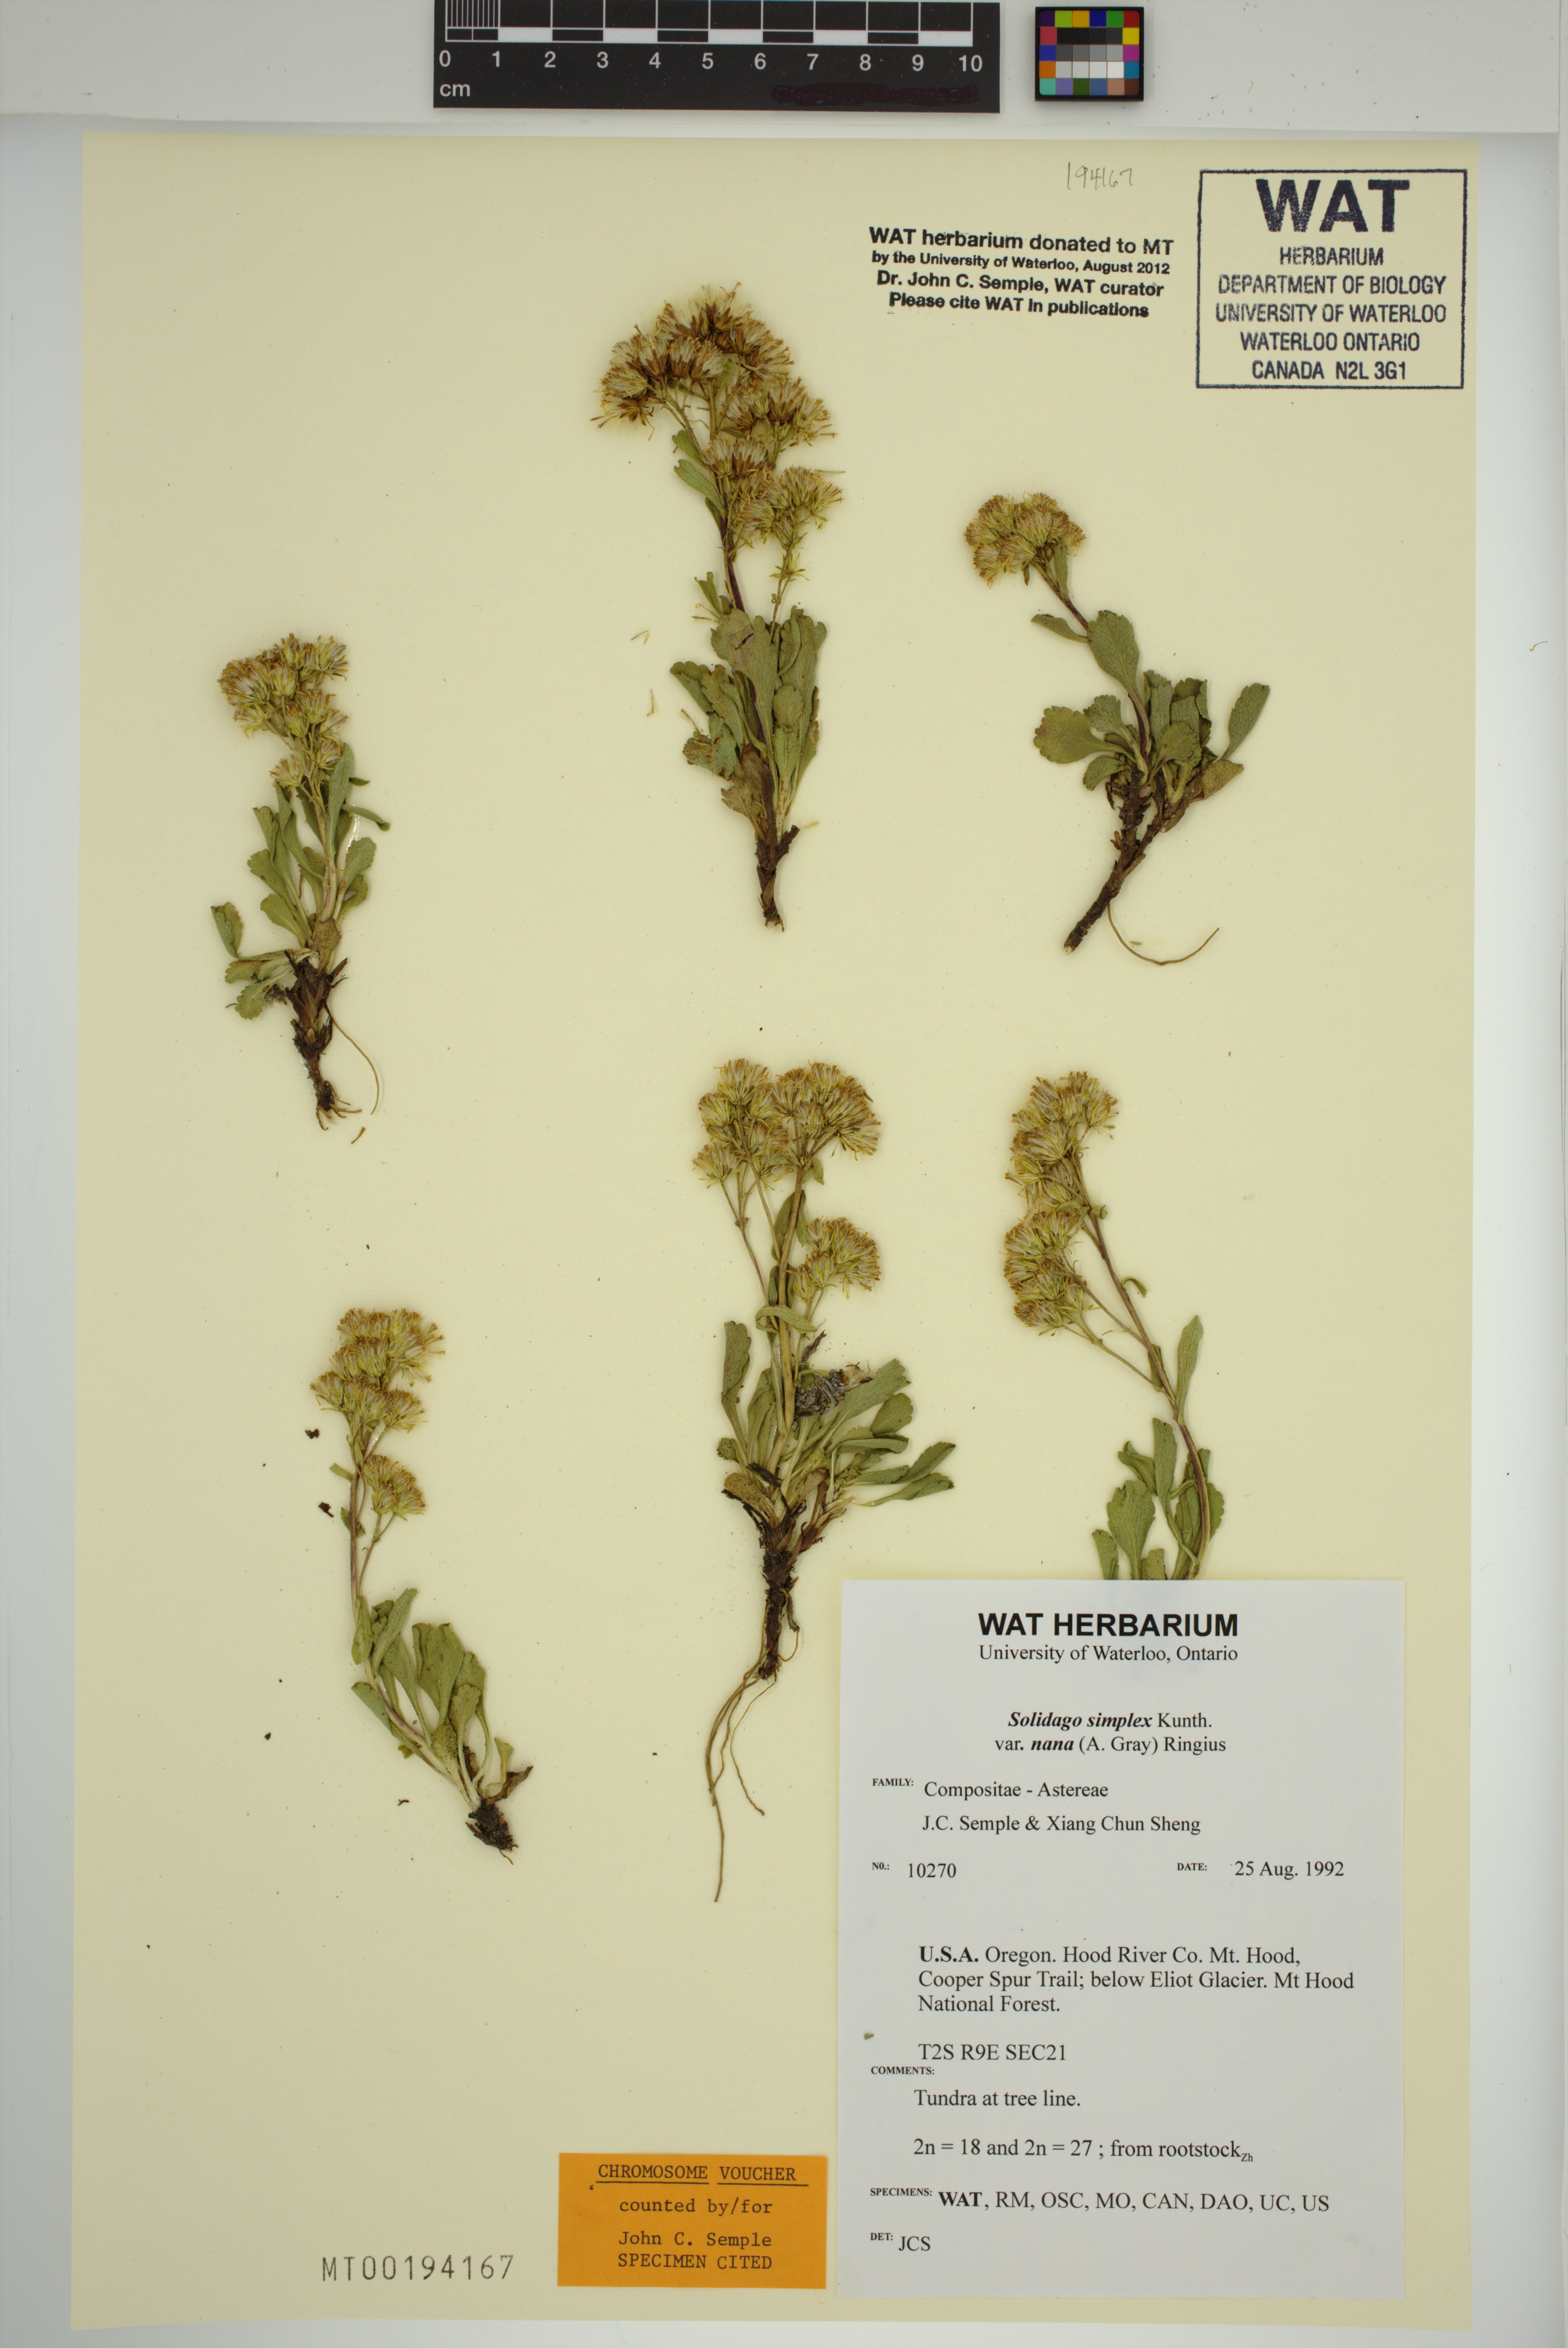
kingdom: Plantae
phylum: Tracheophyta
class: Magnoliopsida
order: Asterales
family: Asteraceae
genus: Solidago
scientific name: Solidago bellidifolia
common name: Alpine goldenrod
